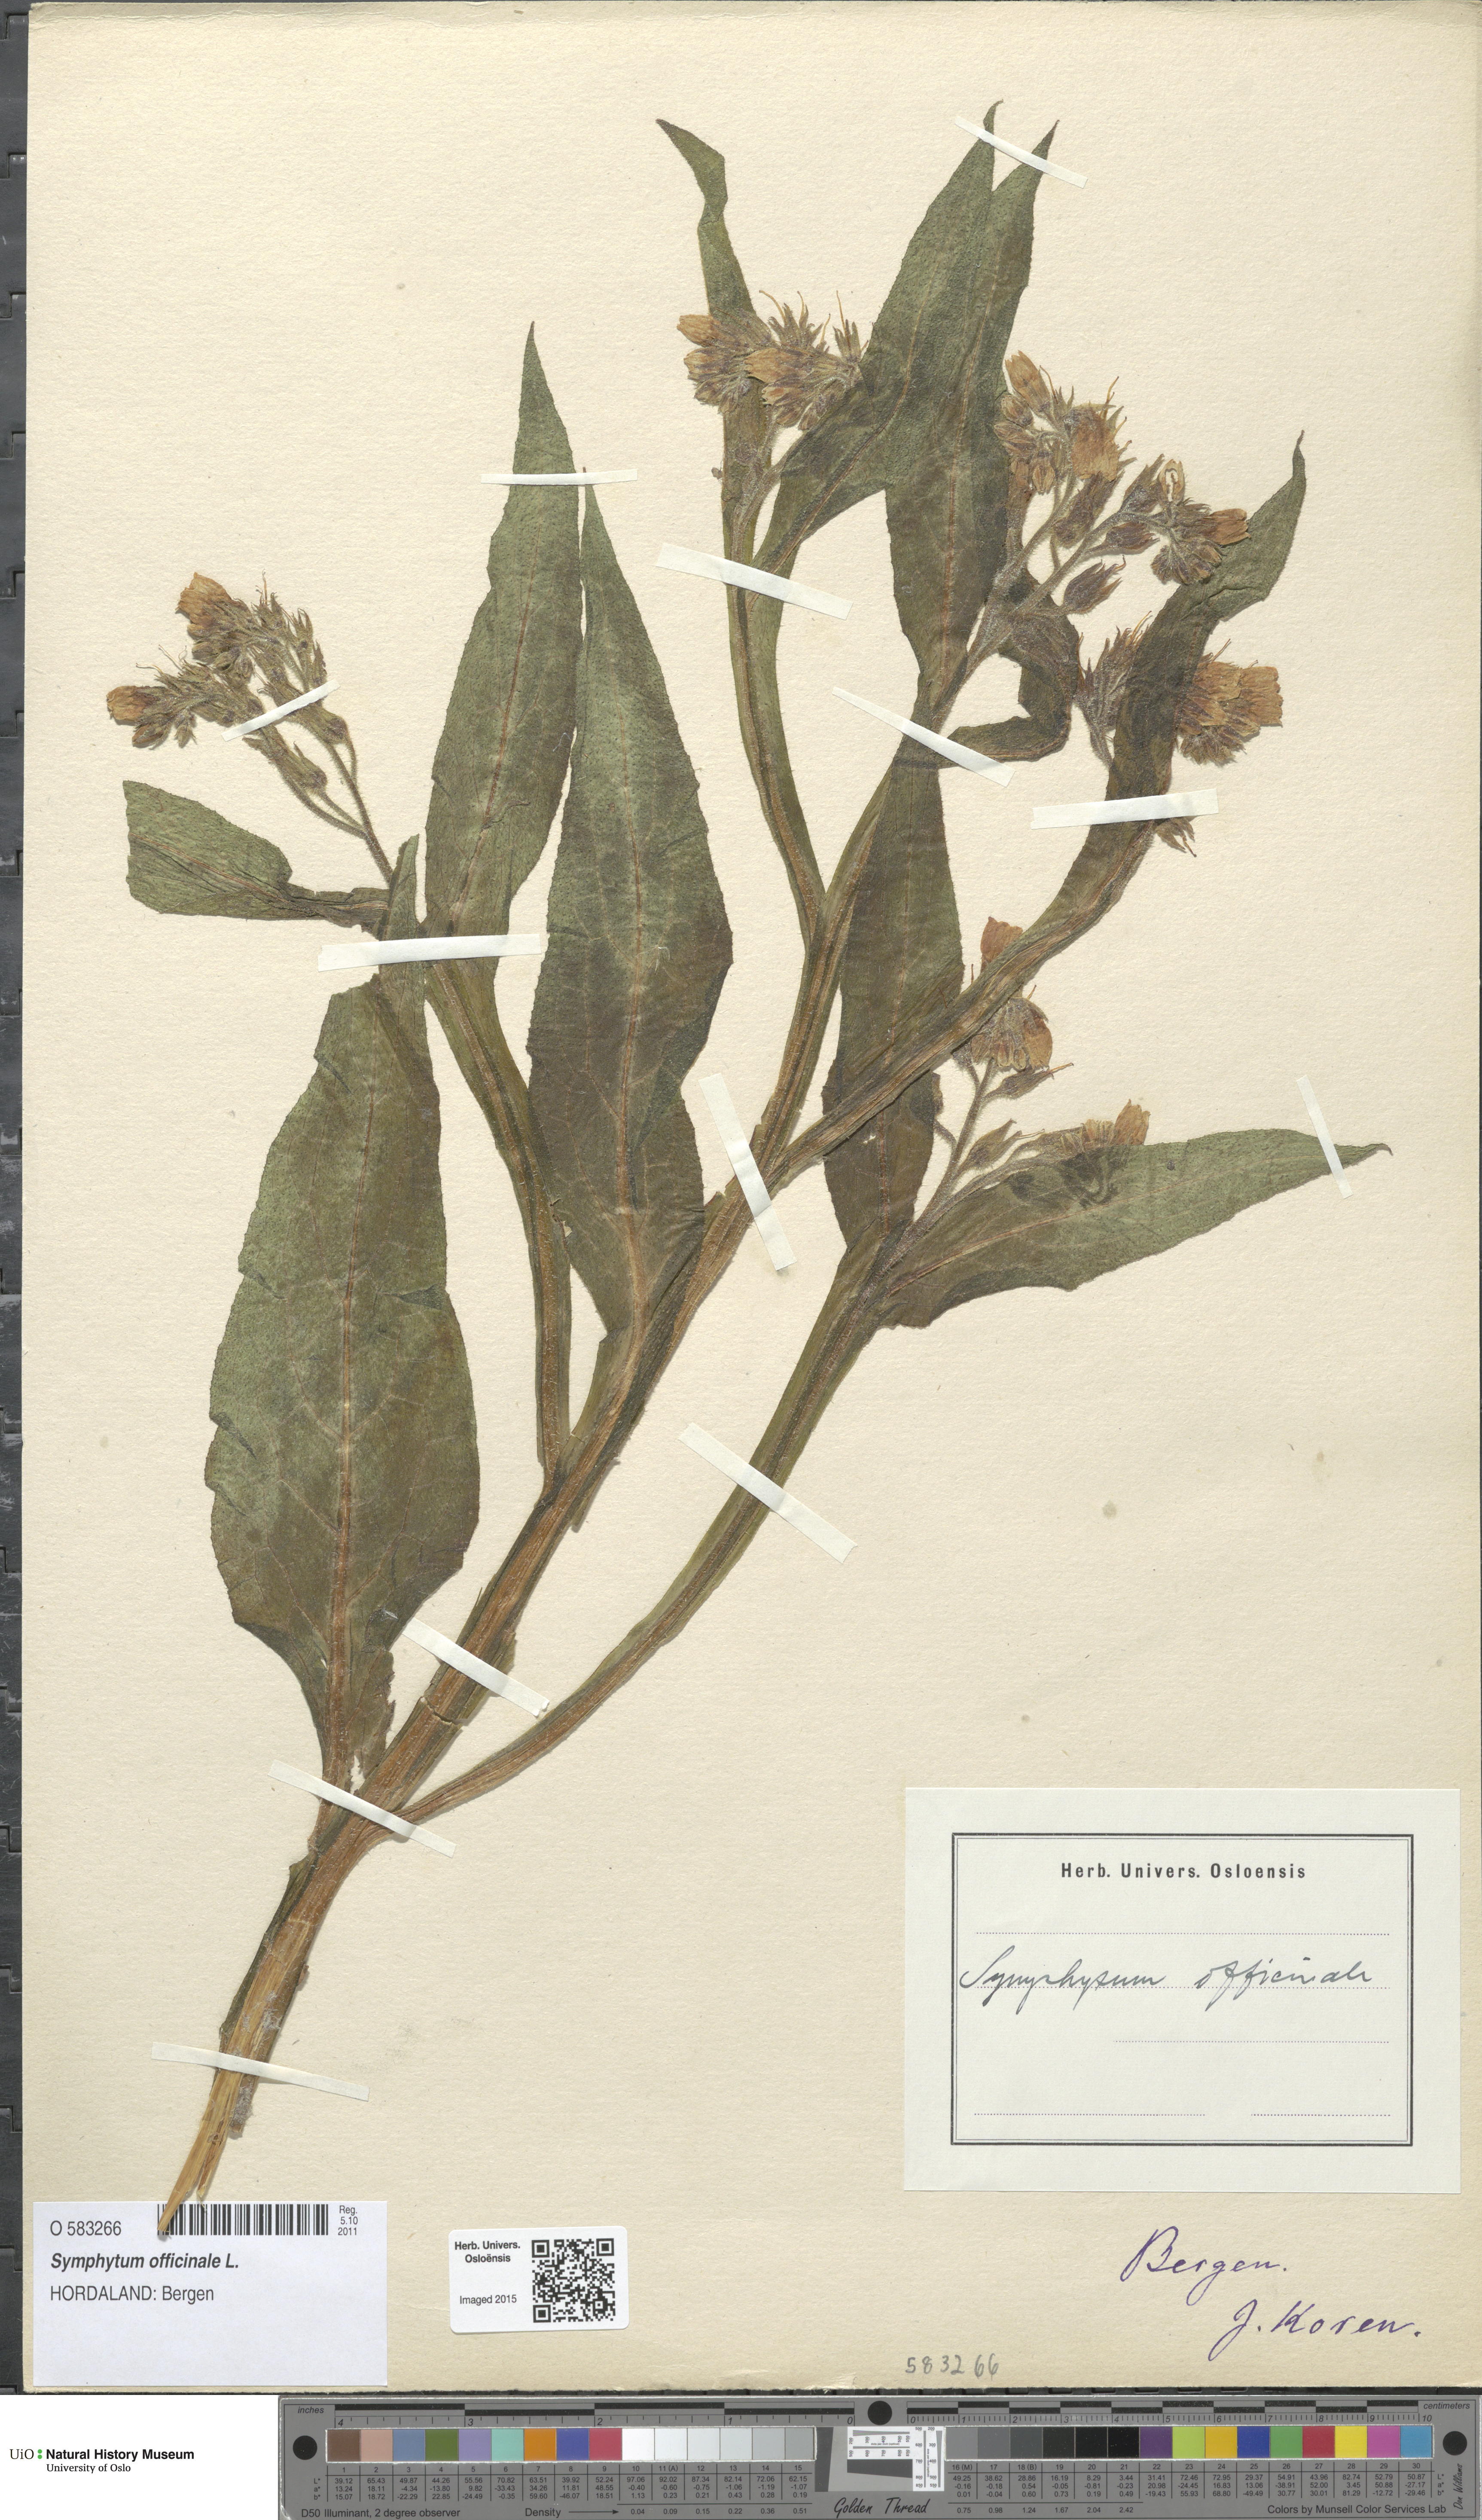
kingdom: Plantae
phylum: Tracheophyta
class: Magnoliopsida
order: Boraginales
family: Boraginaceae
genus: Symphytum
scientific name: Symphytum officinale
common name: Common comfrey
